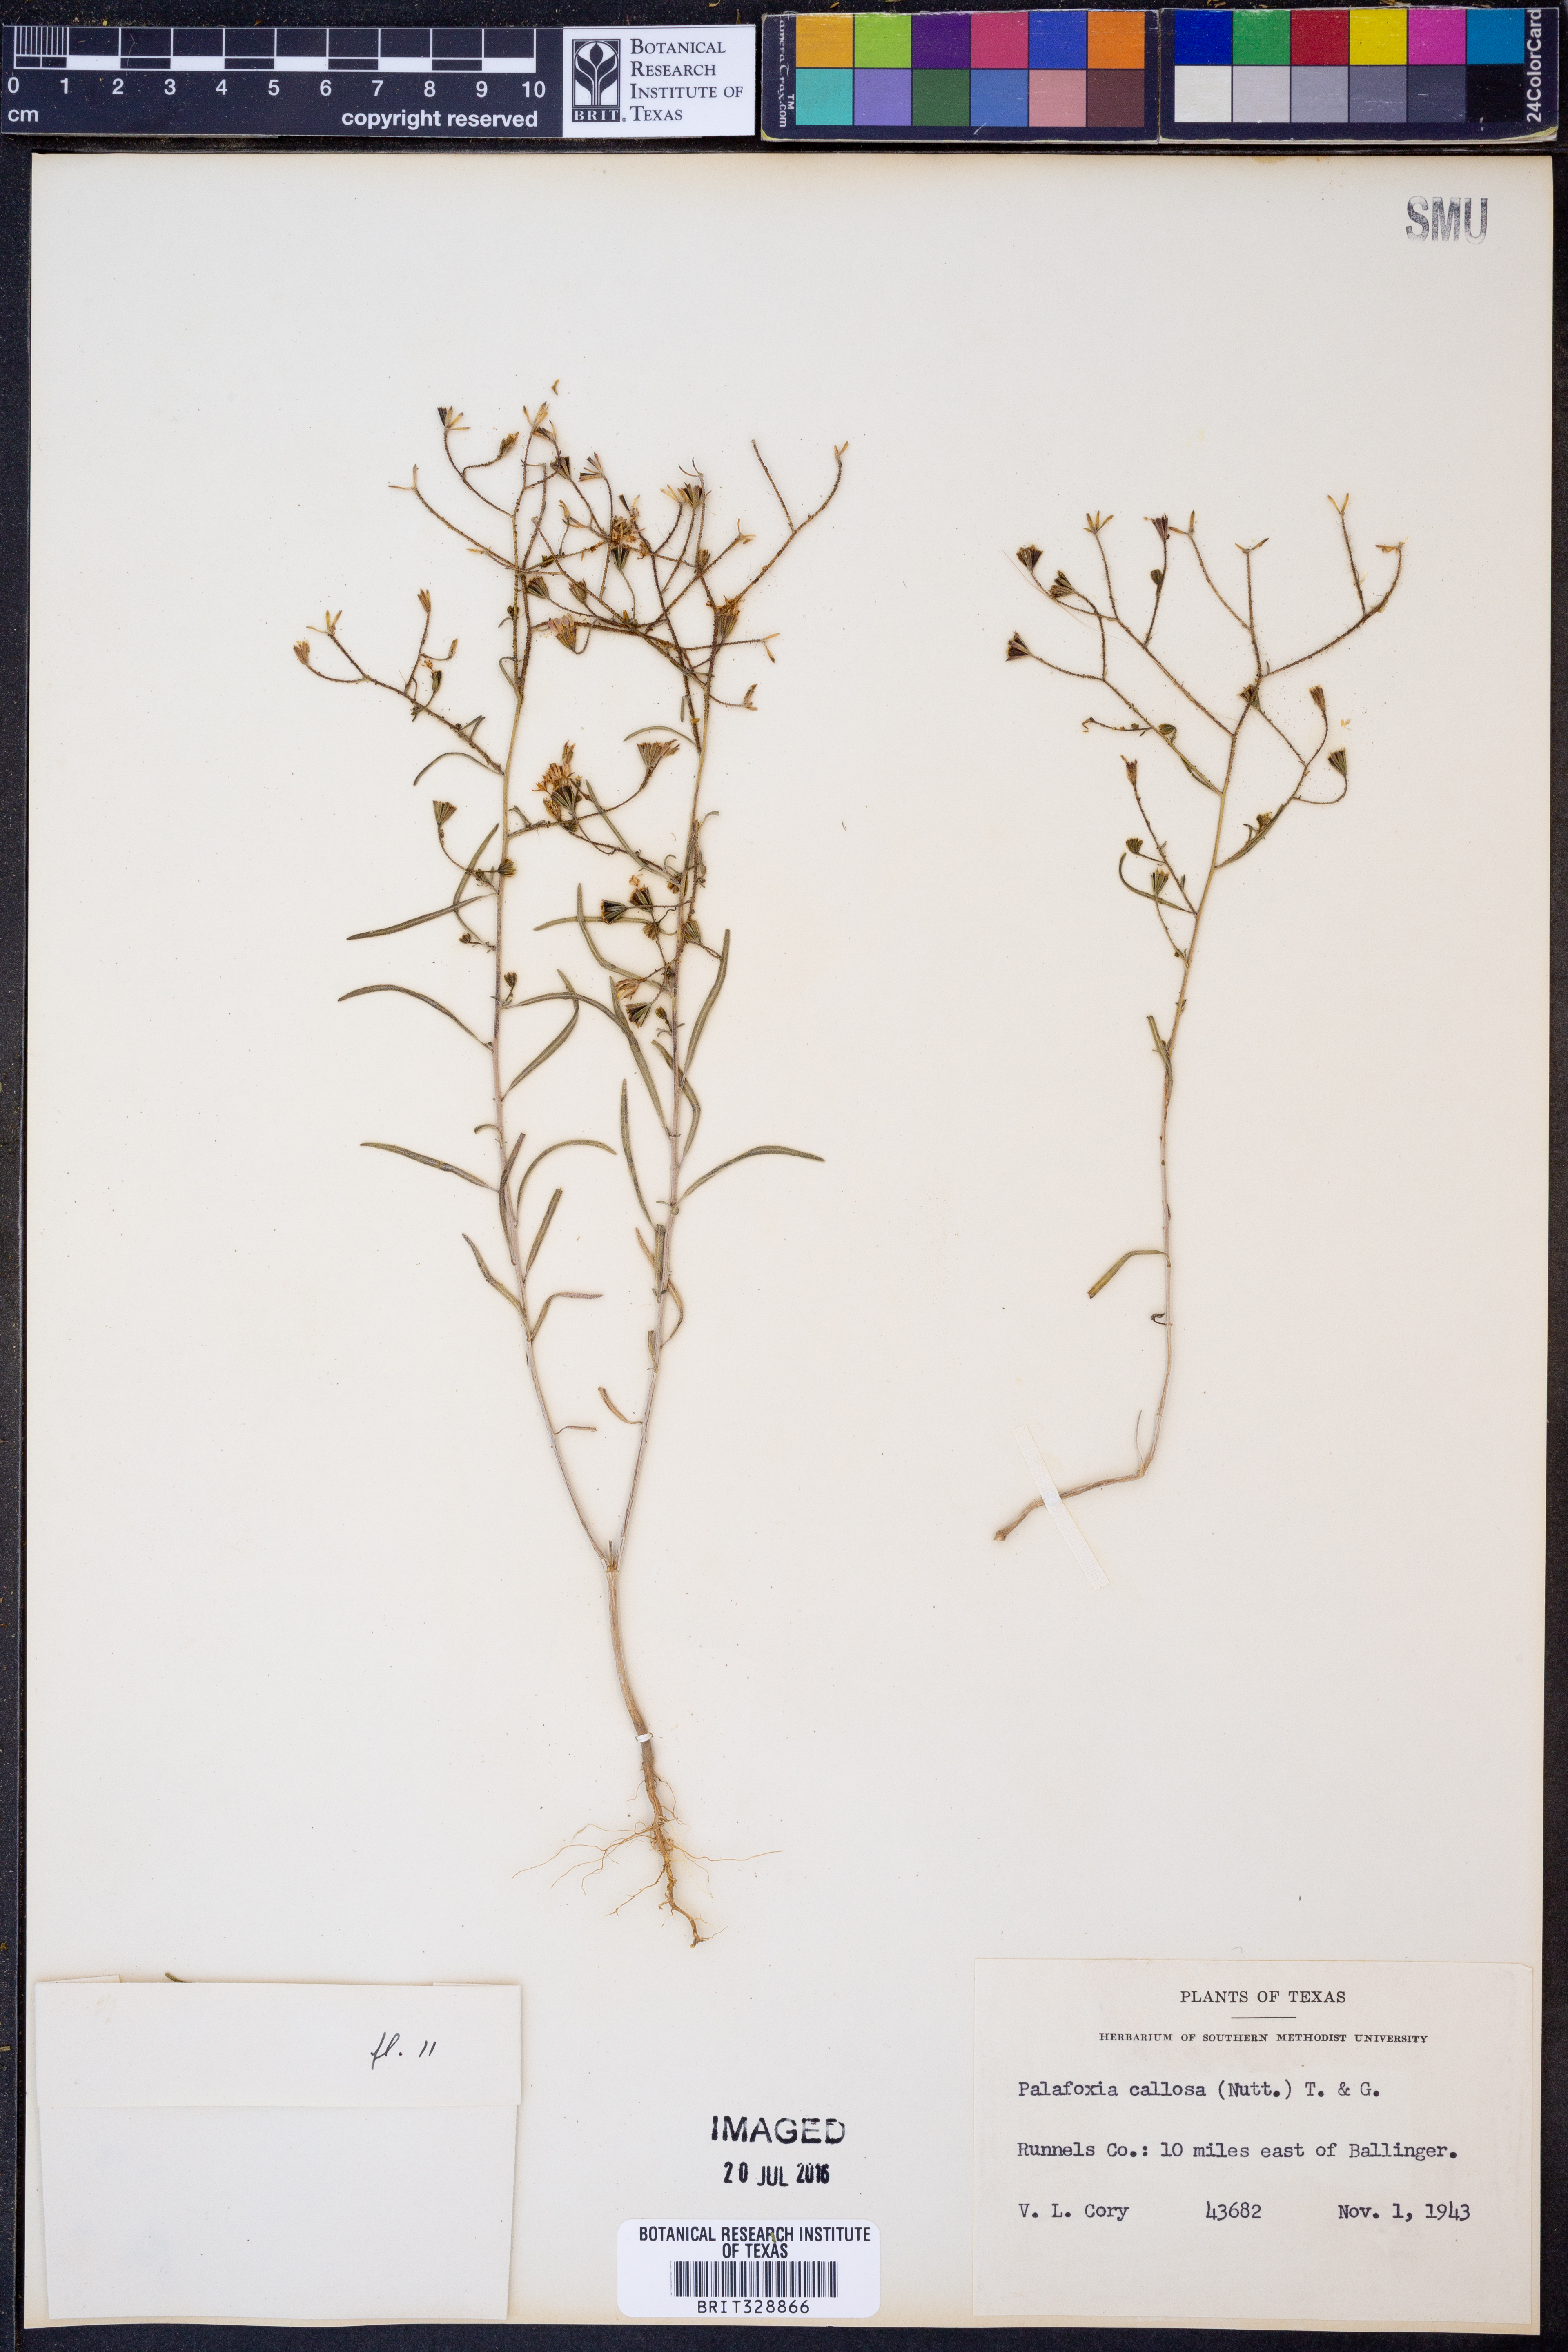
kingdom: Plantae
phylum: Tracheophyta
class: Magnoliopsida
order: Asterales
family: Asteraceae
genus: Palafoxia
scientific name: Palafoxia callosa
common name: Small palafox
